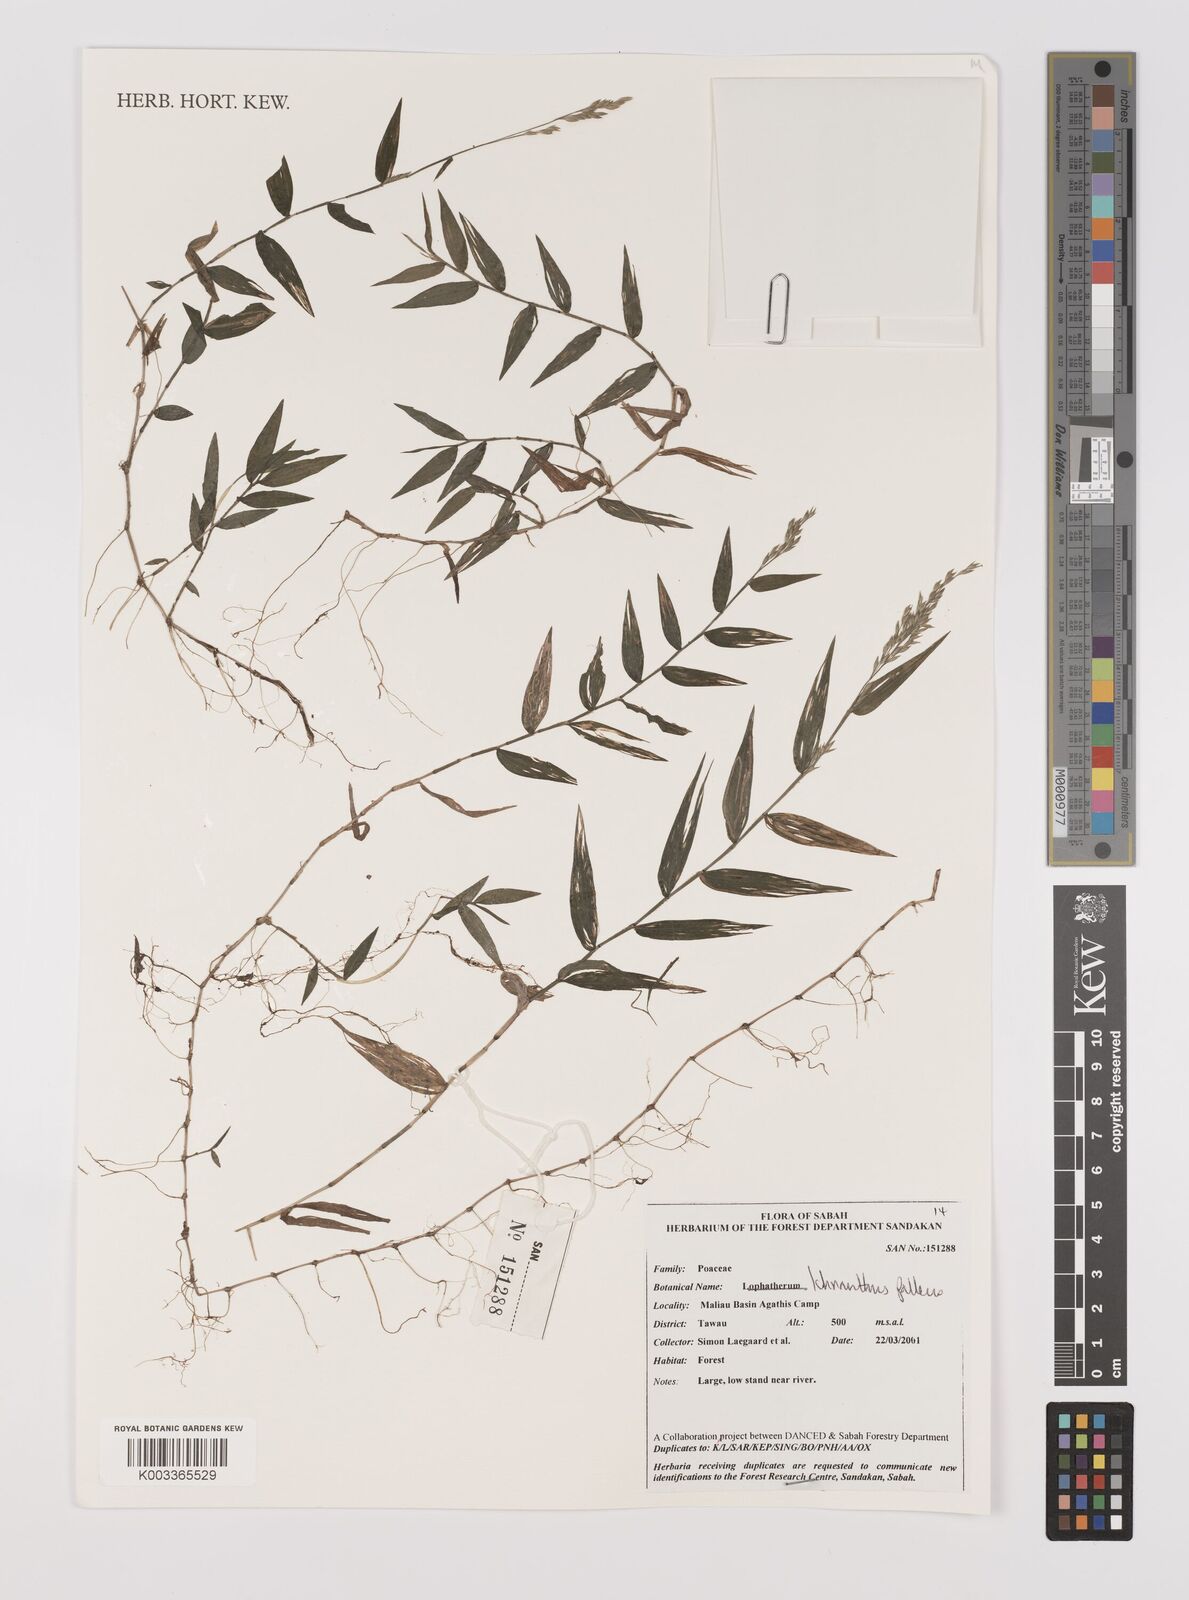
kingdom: Plantae
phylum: Tracheophyta
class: Liliopsida
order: Poales
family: Poaceae
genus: Ichnanthus
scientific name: Ichnanthus pallens
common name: Water grass
